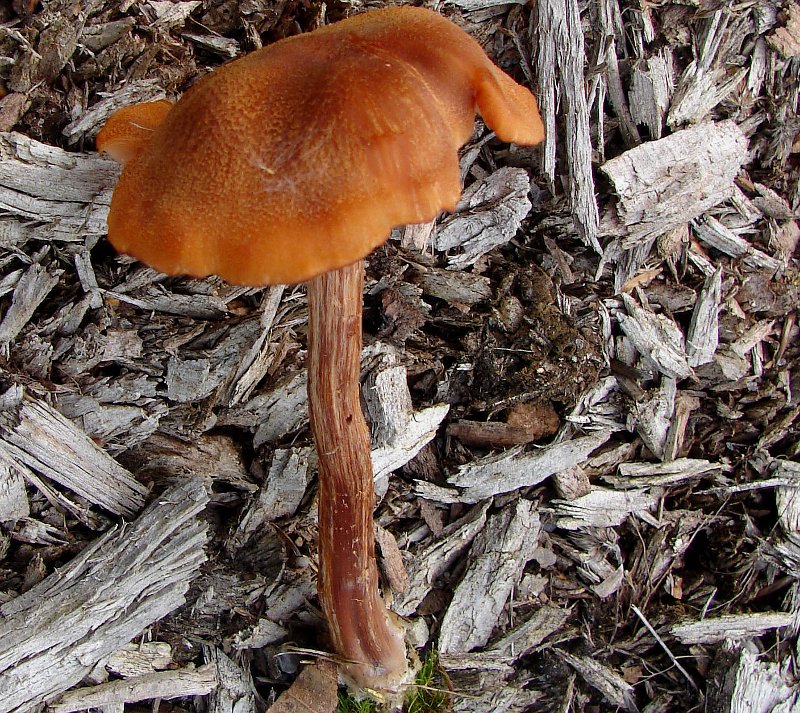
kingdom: Fungi
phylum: Basidiomycota
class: Agaricomycetes
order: Agaricales
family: Hydnangiaceae
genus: Laccaria
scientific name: Laccaria proxima
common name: stor ametysthat
